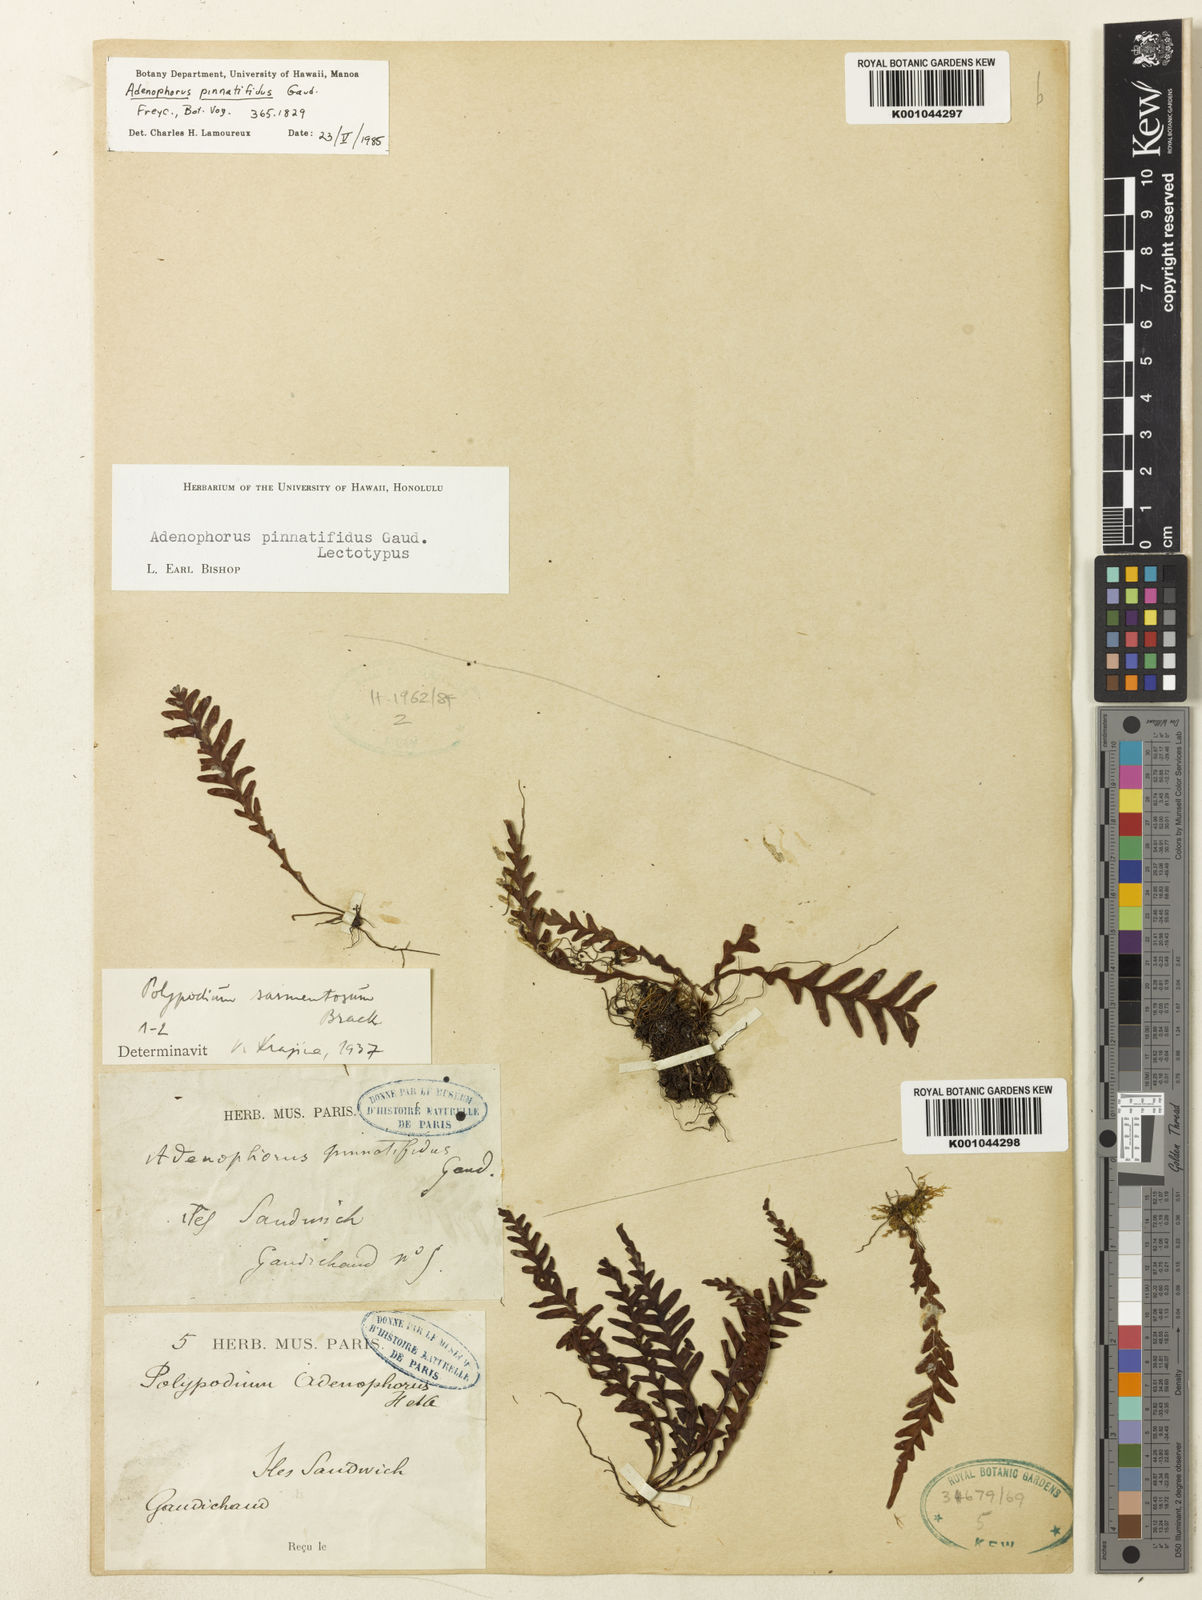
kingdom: Plantae
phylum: Tracheophyta
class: Polypodiopsida
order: Polypodiales
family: Polypodiaceae
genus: Adenophorus
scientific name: Adenophorus pinnatifidus
